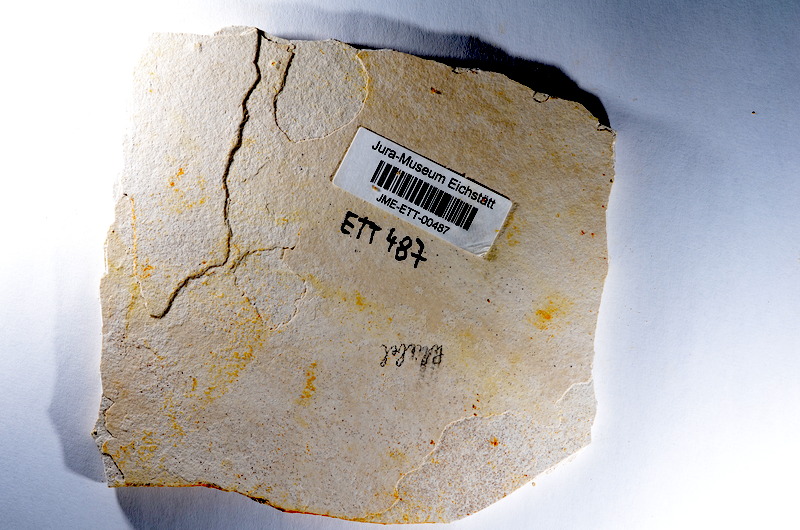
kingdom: Animalia
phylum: Chordata
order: Salmoniformes
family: Orthogonikleithridae
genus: Orthogonikleithrus
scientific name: Orthogonikleithrus hoelli
